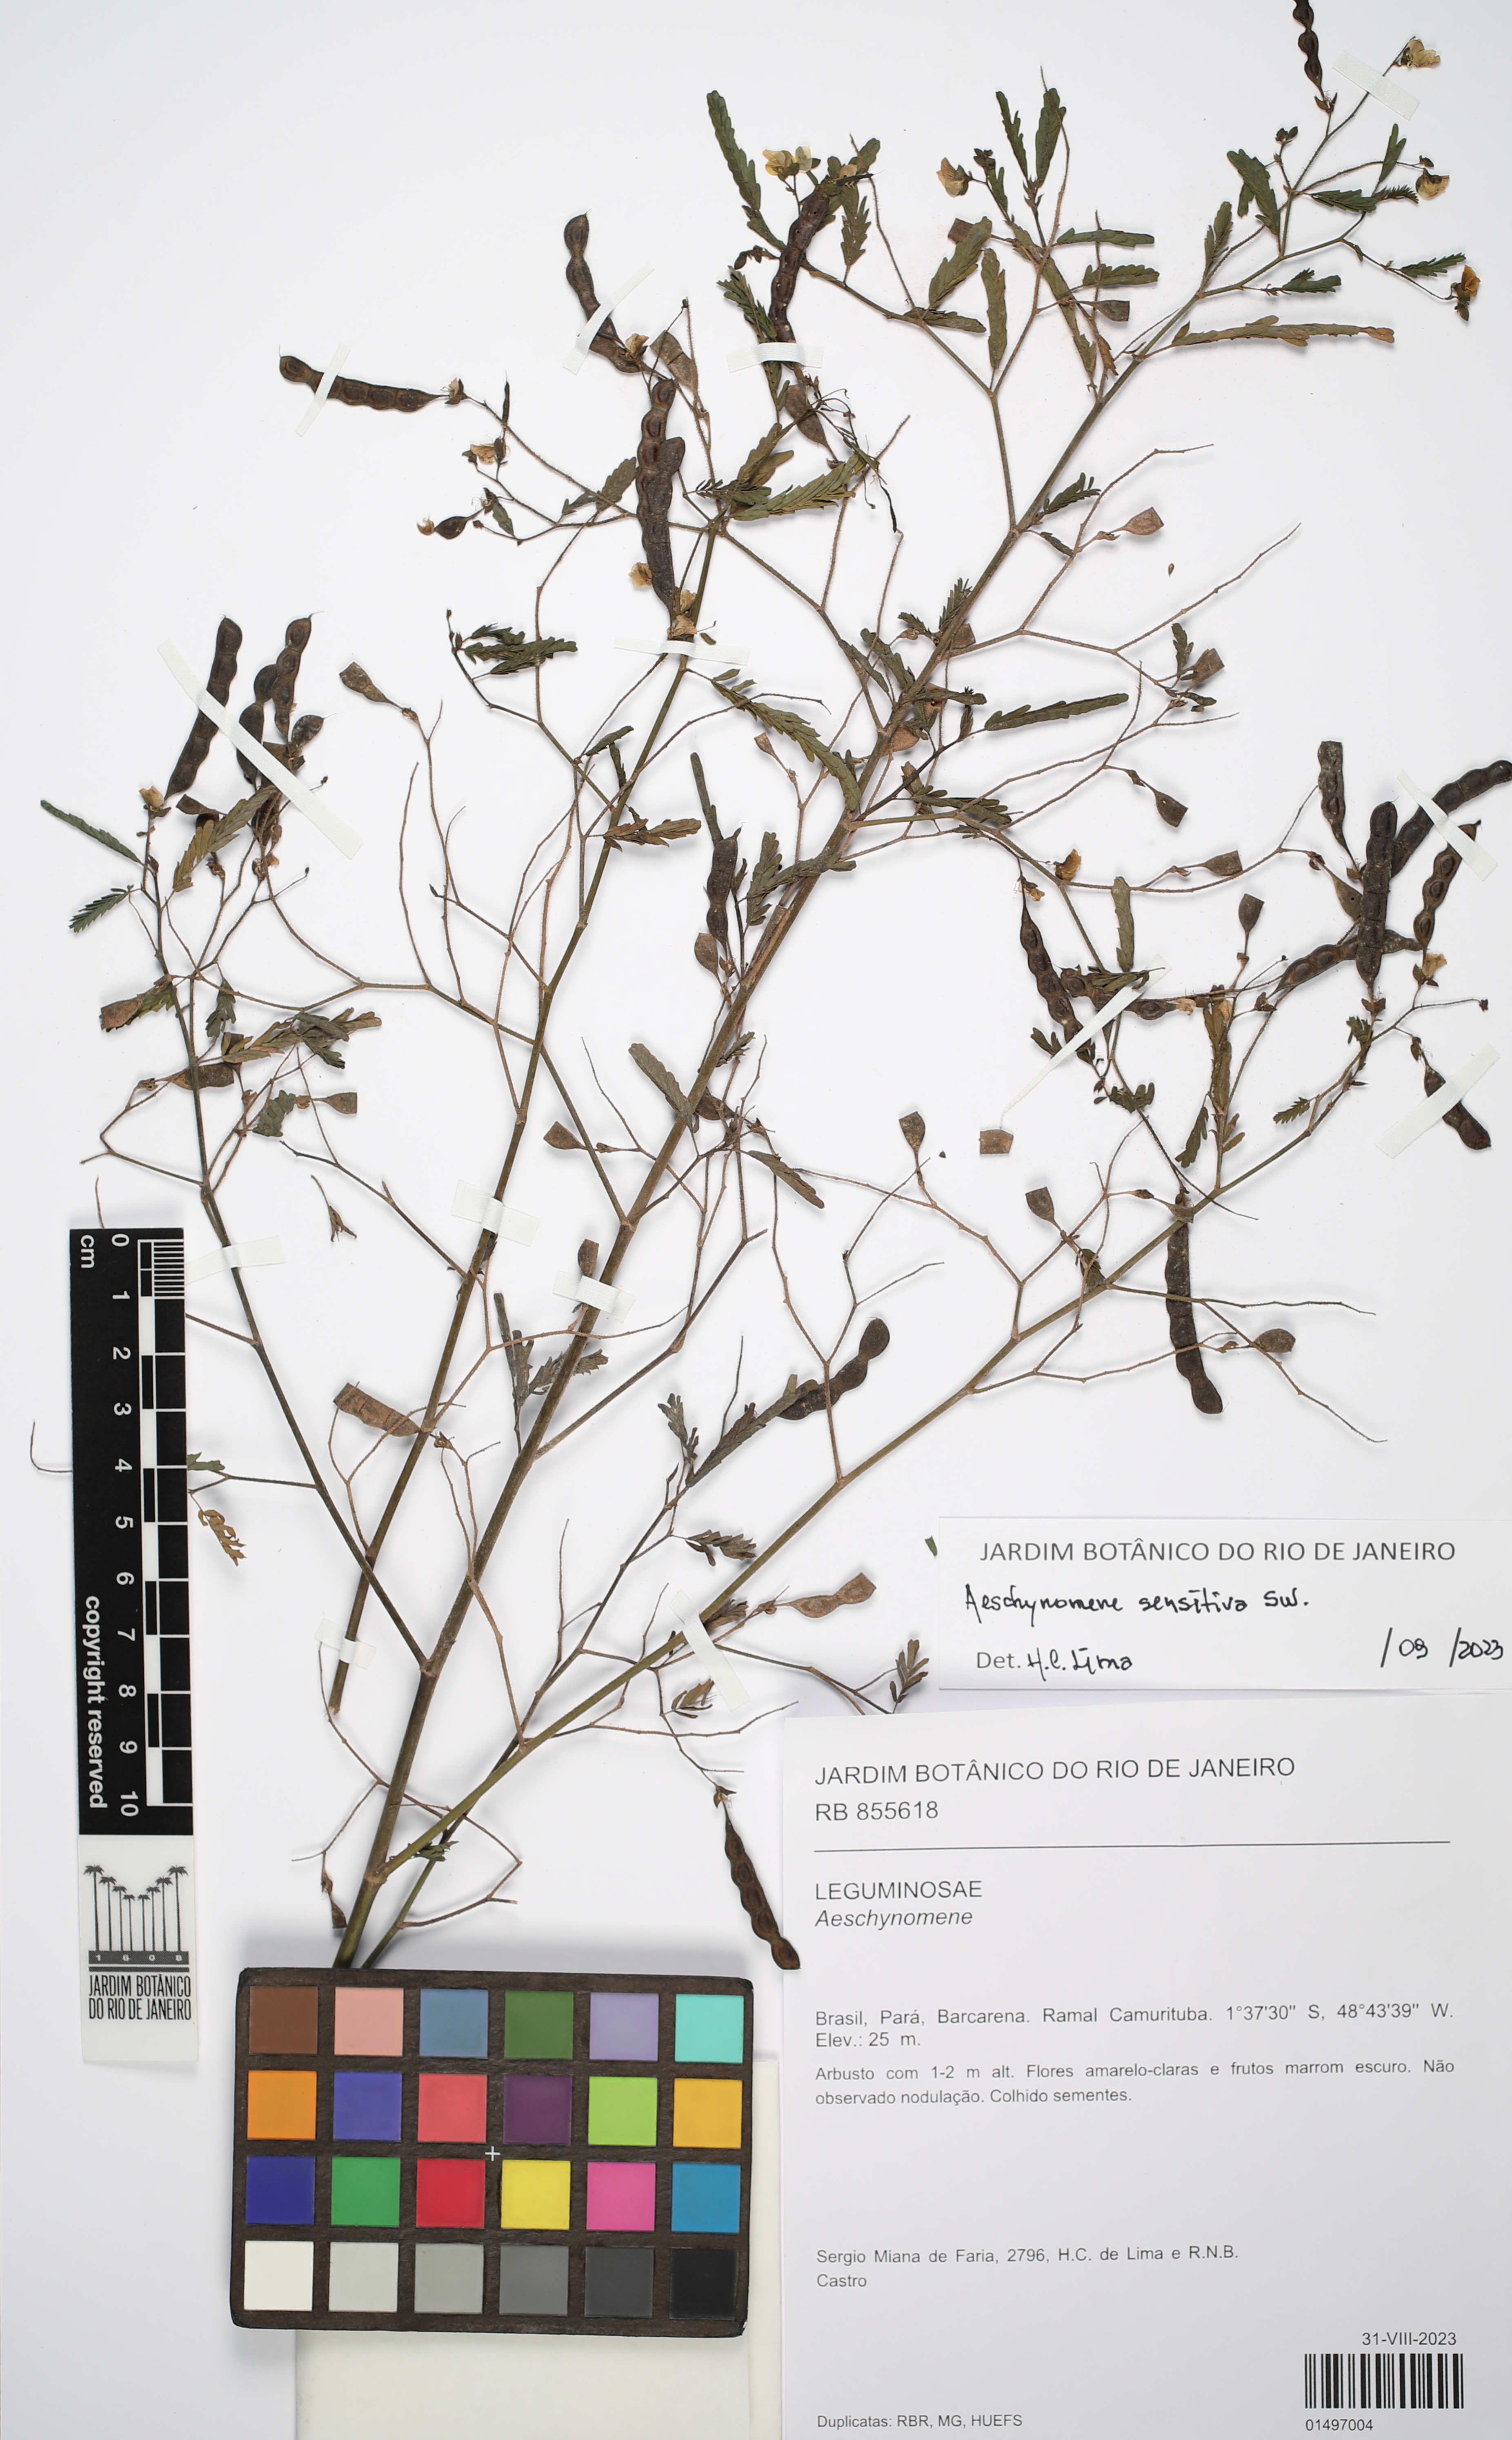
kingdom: Plantae
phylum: Tracheophyta
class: Magnoliopsida
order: Fabales
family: Fabaceae
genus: Aeschynomene
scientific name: Aeschynomene
